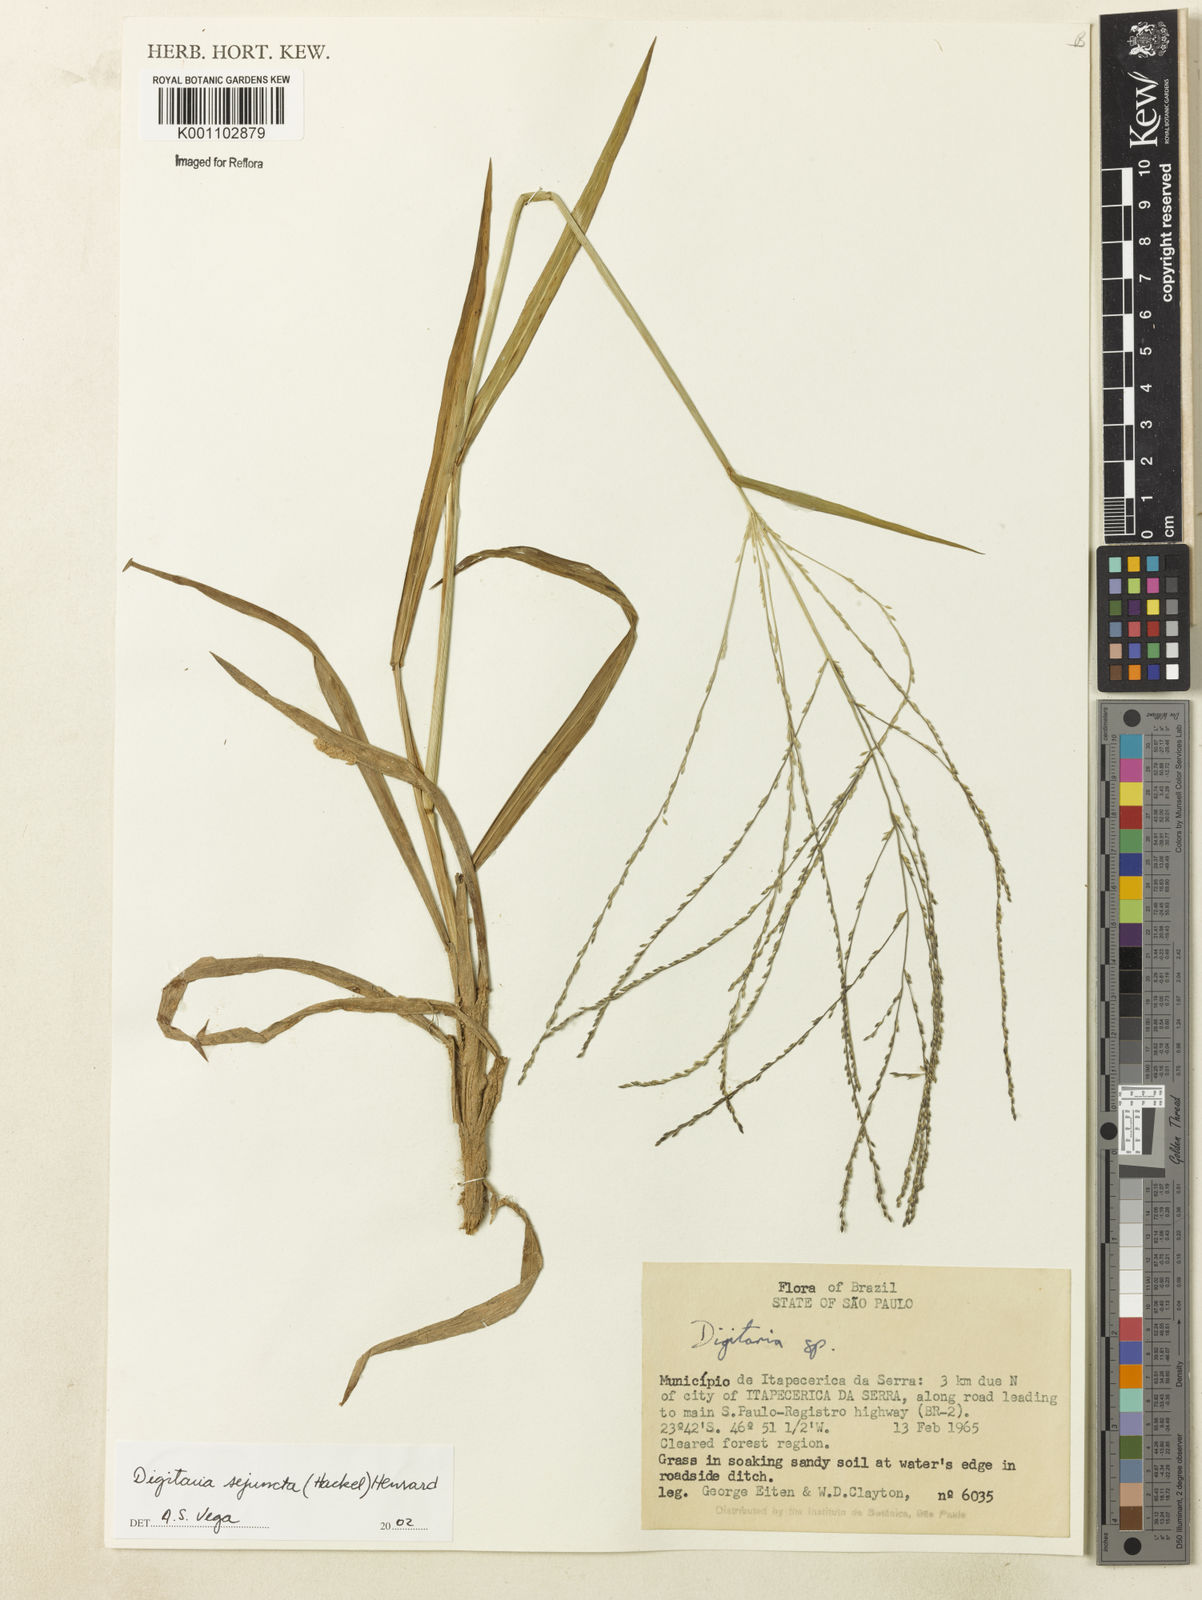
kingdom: Plantae
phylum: Tracheophyta
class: Liliopsida
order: Poales
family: Poaceae
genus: Digitaria
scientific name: Digitaria sejuncta
